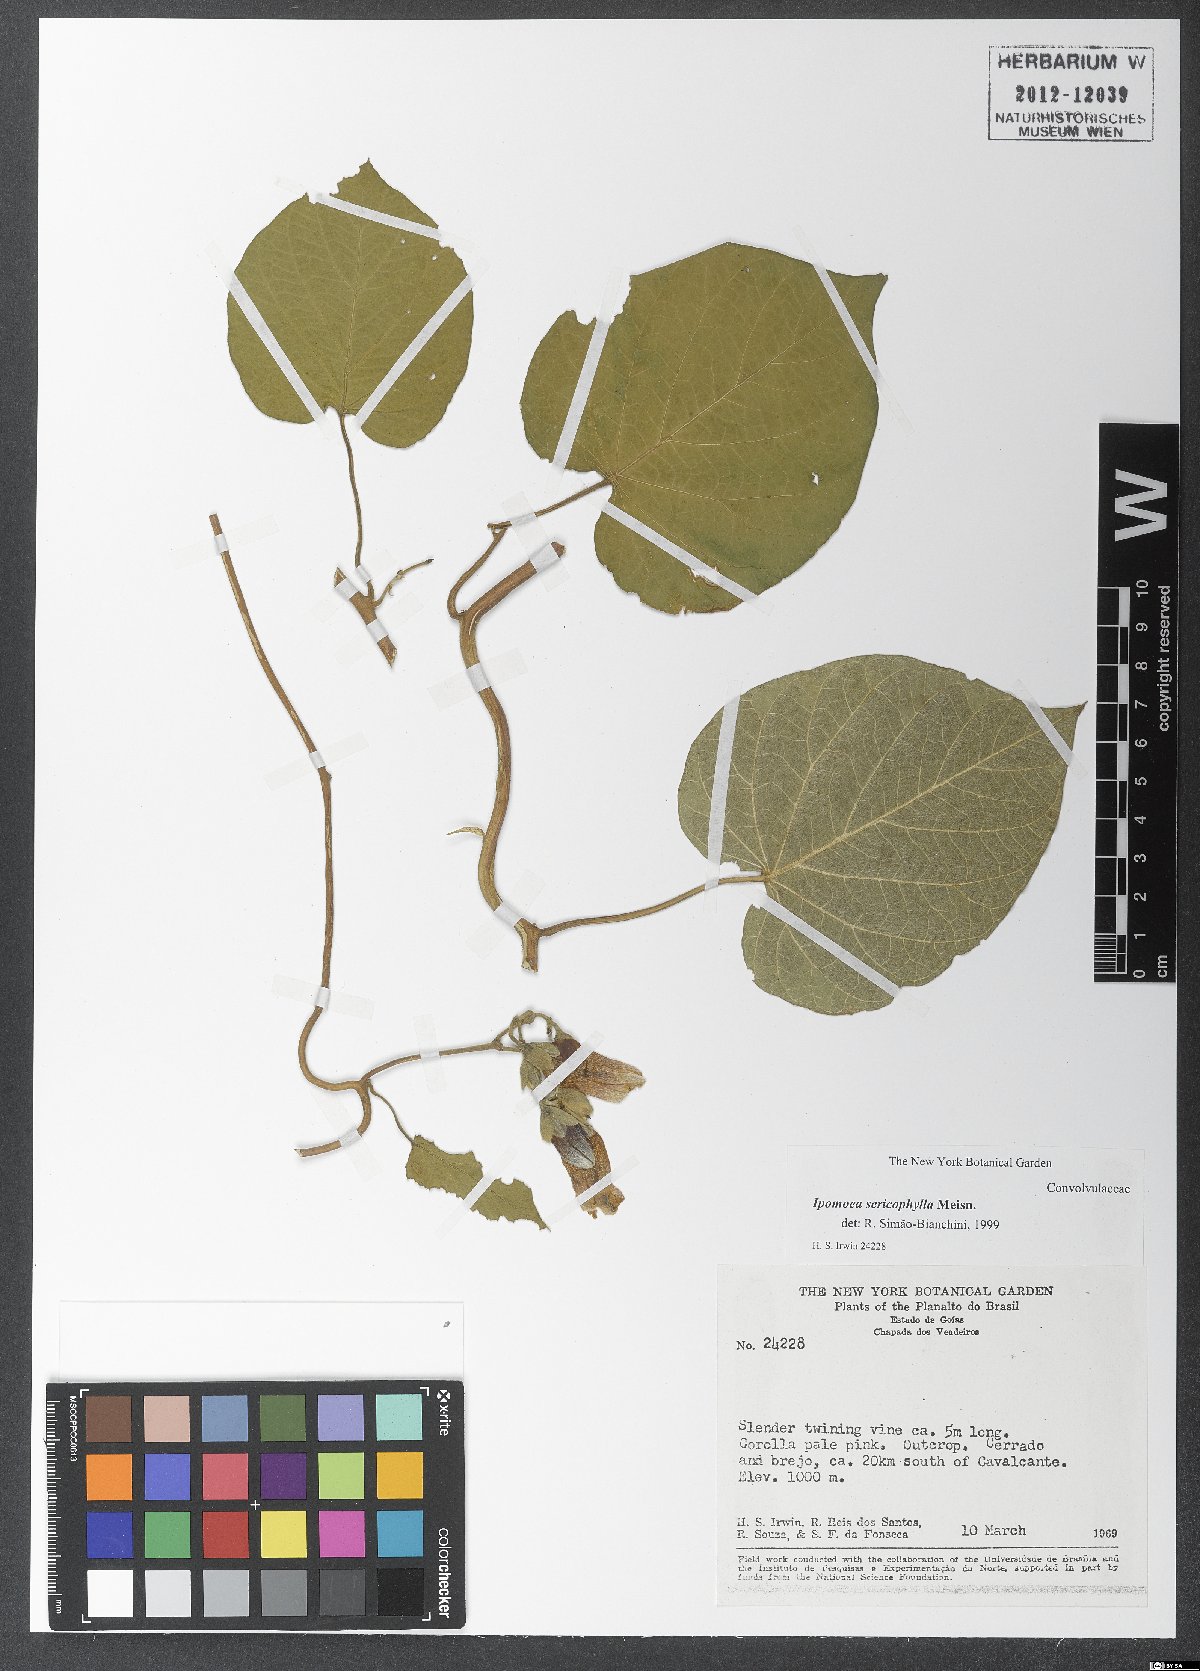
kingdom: Plantae
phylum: Tracheophyta
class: Magnoliopsida
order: Solanales
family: Convolvulaceae
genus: Ipomoea
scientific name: Ipomoea sericophylla
